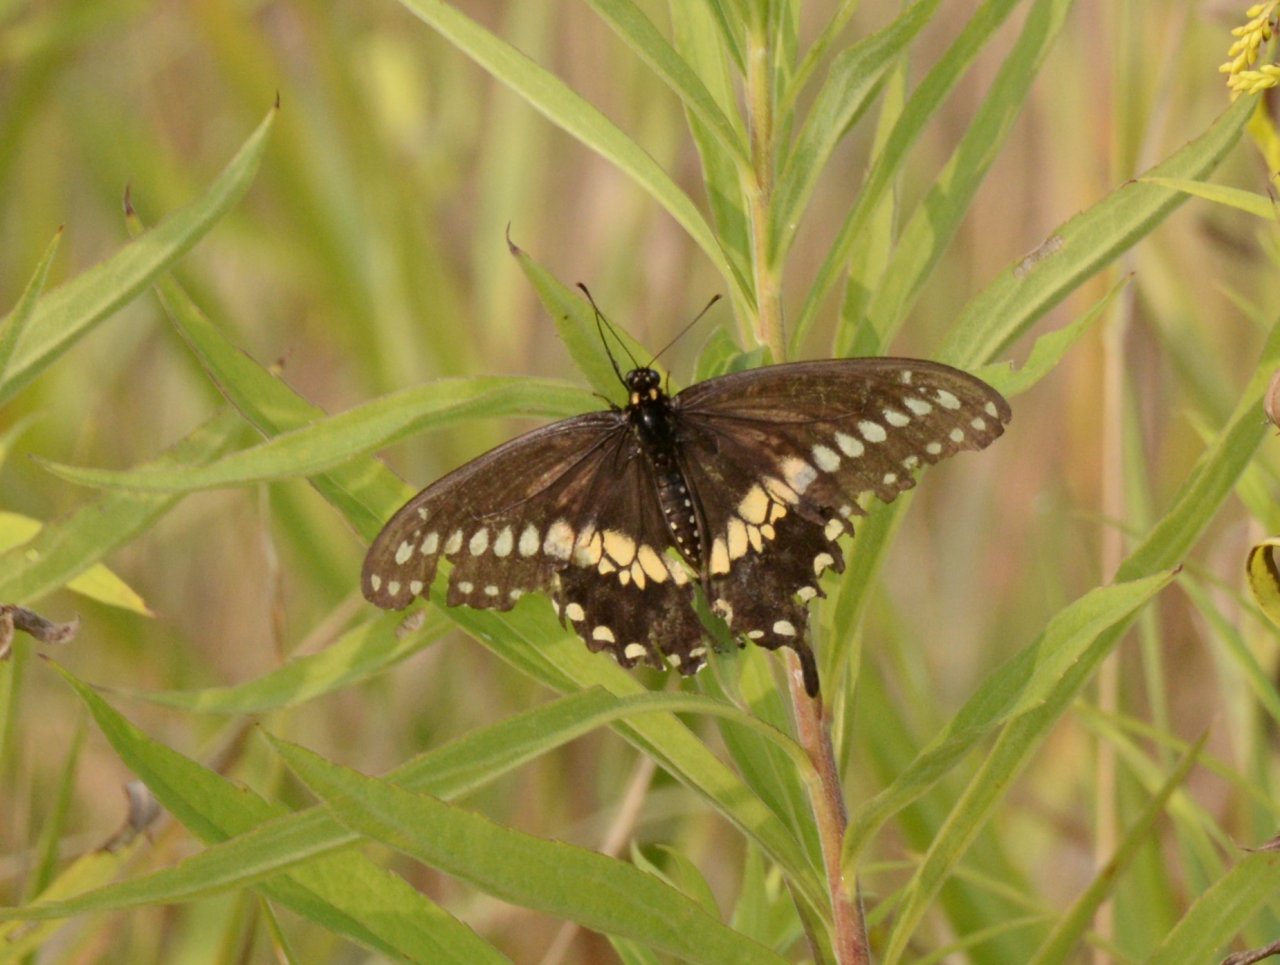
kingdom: Animalia
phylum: Arthropoda
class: Insecta
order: Lepidoptera
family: Papilionidae
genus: Papilio
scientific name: Papilio polyxenes
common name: Black Swallowtail
